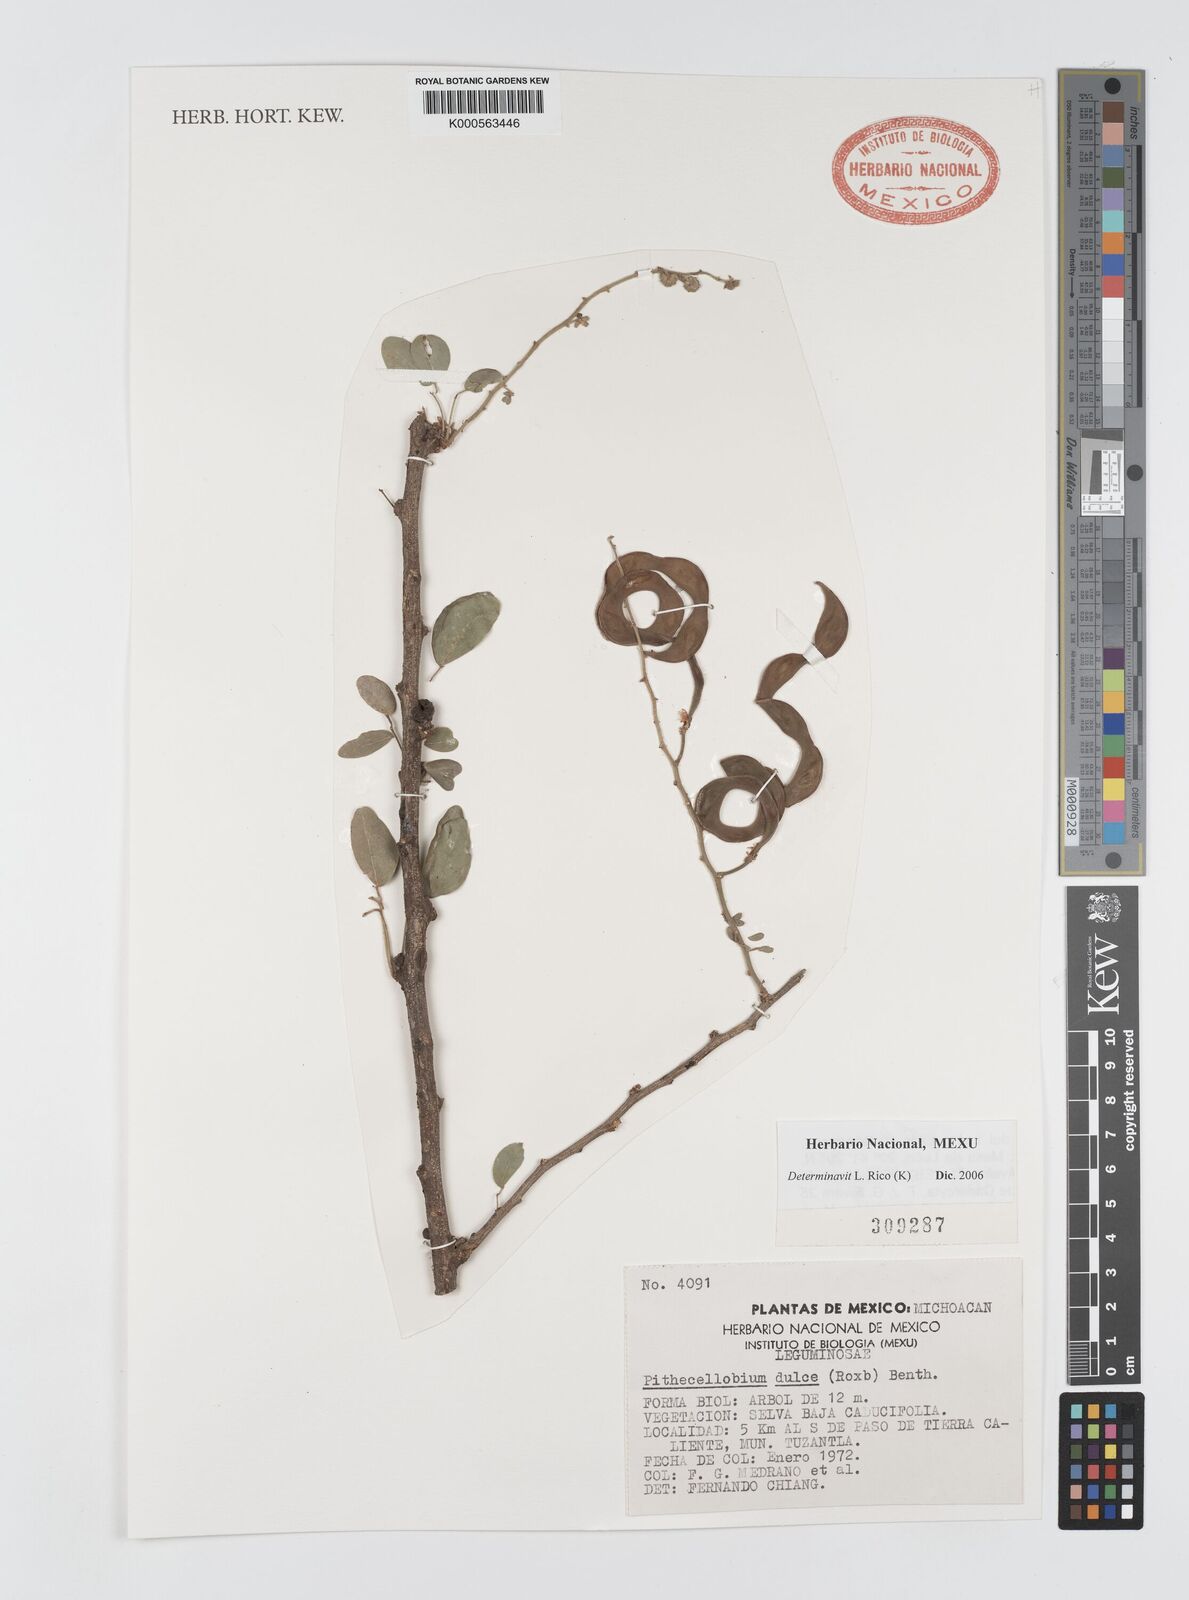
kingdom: Plantae
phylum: Tracheophyta
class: Magnoliopsida
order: Fabales
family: Fabaceae
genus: Pithecellobium
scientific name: Pithecellobium dulce
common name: Monkeypod
